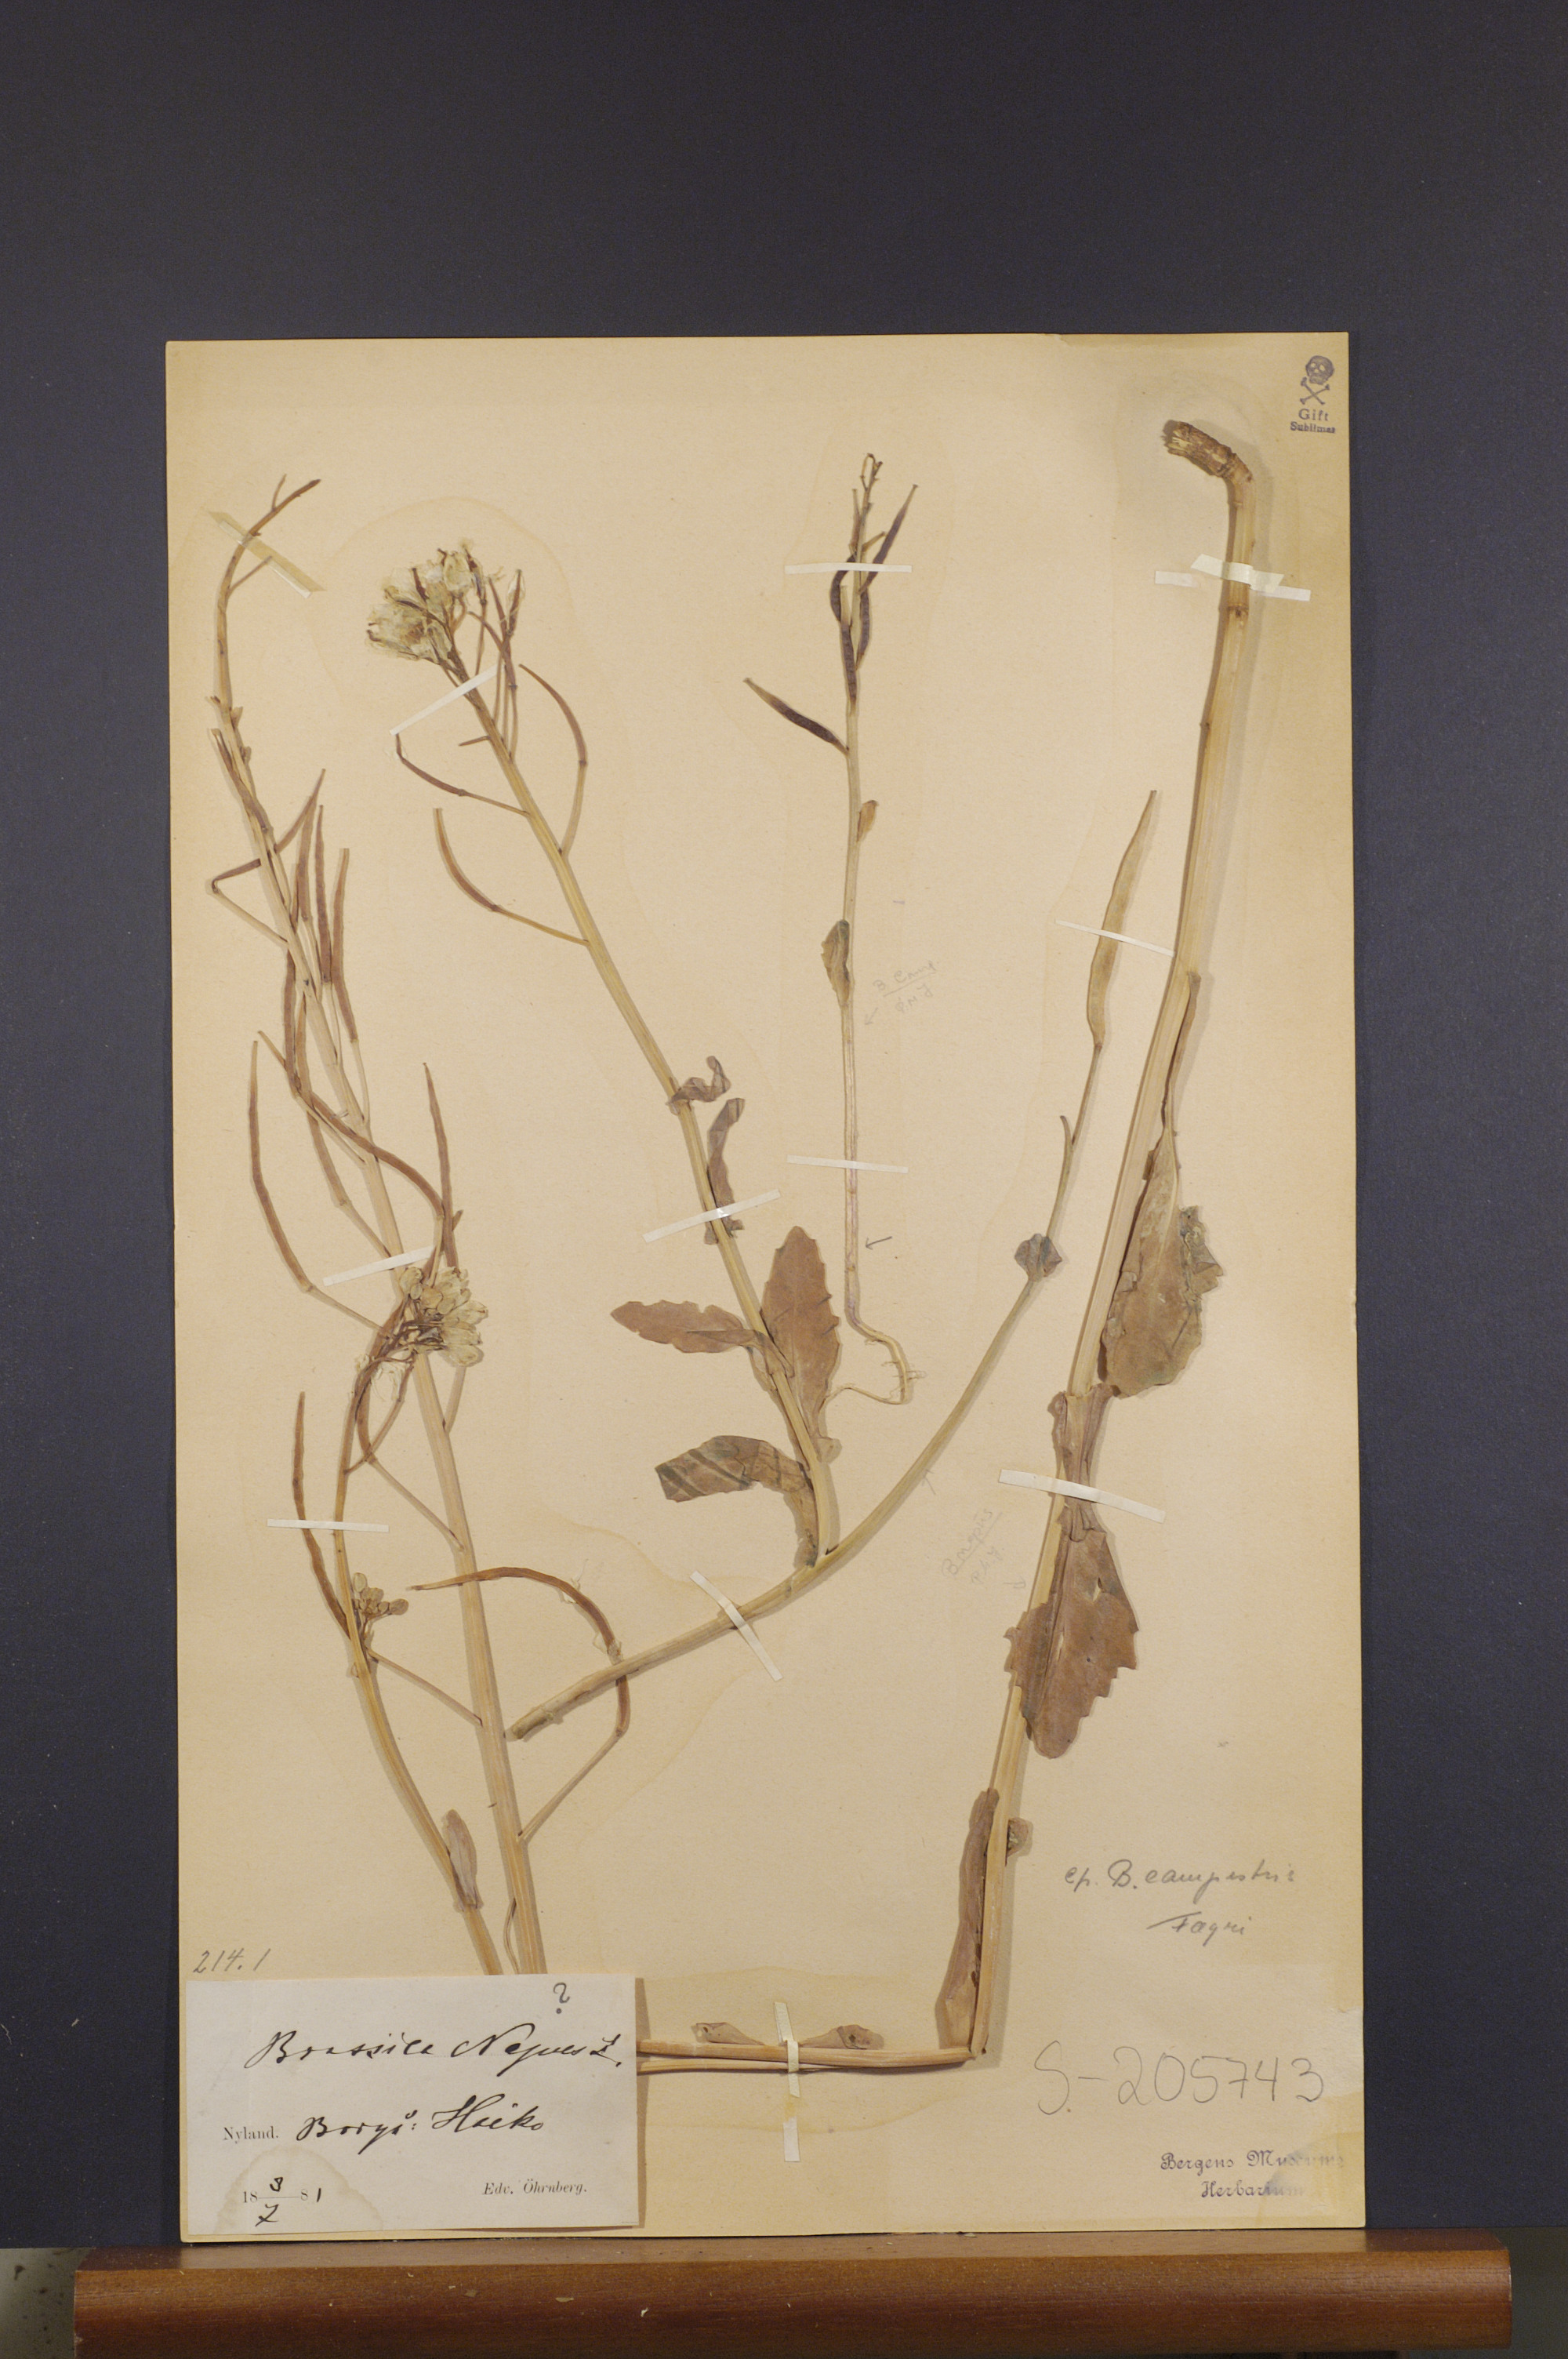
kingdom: Plantae
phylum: Tracheophyta
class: Magnoliopsida
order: Brassicales
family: Brassicaceae
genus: Brassica
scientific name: Brassica rapa
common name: Field mustard
